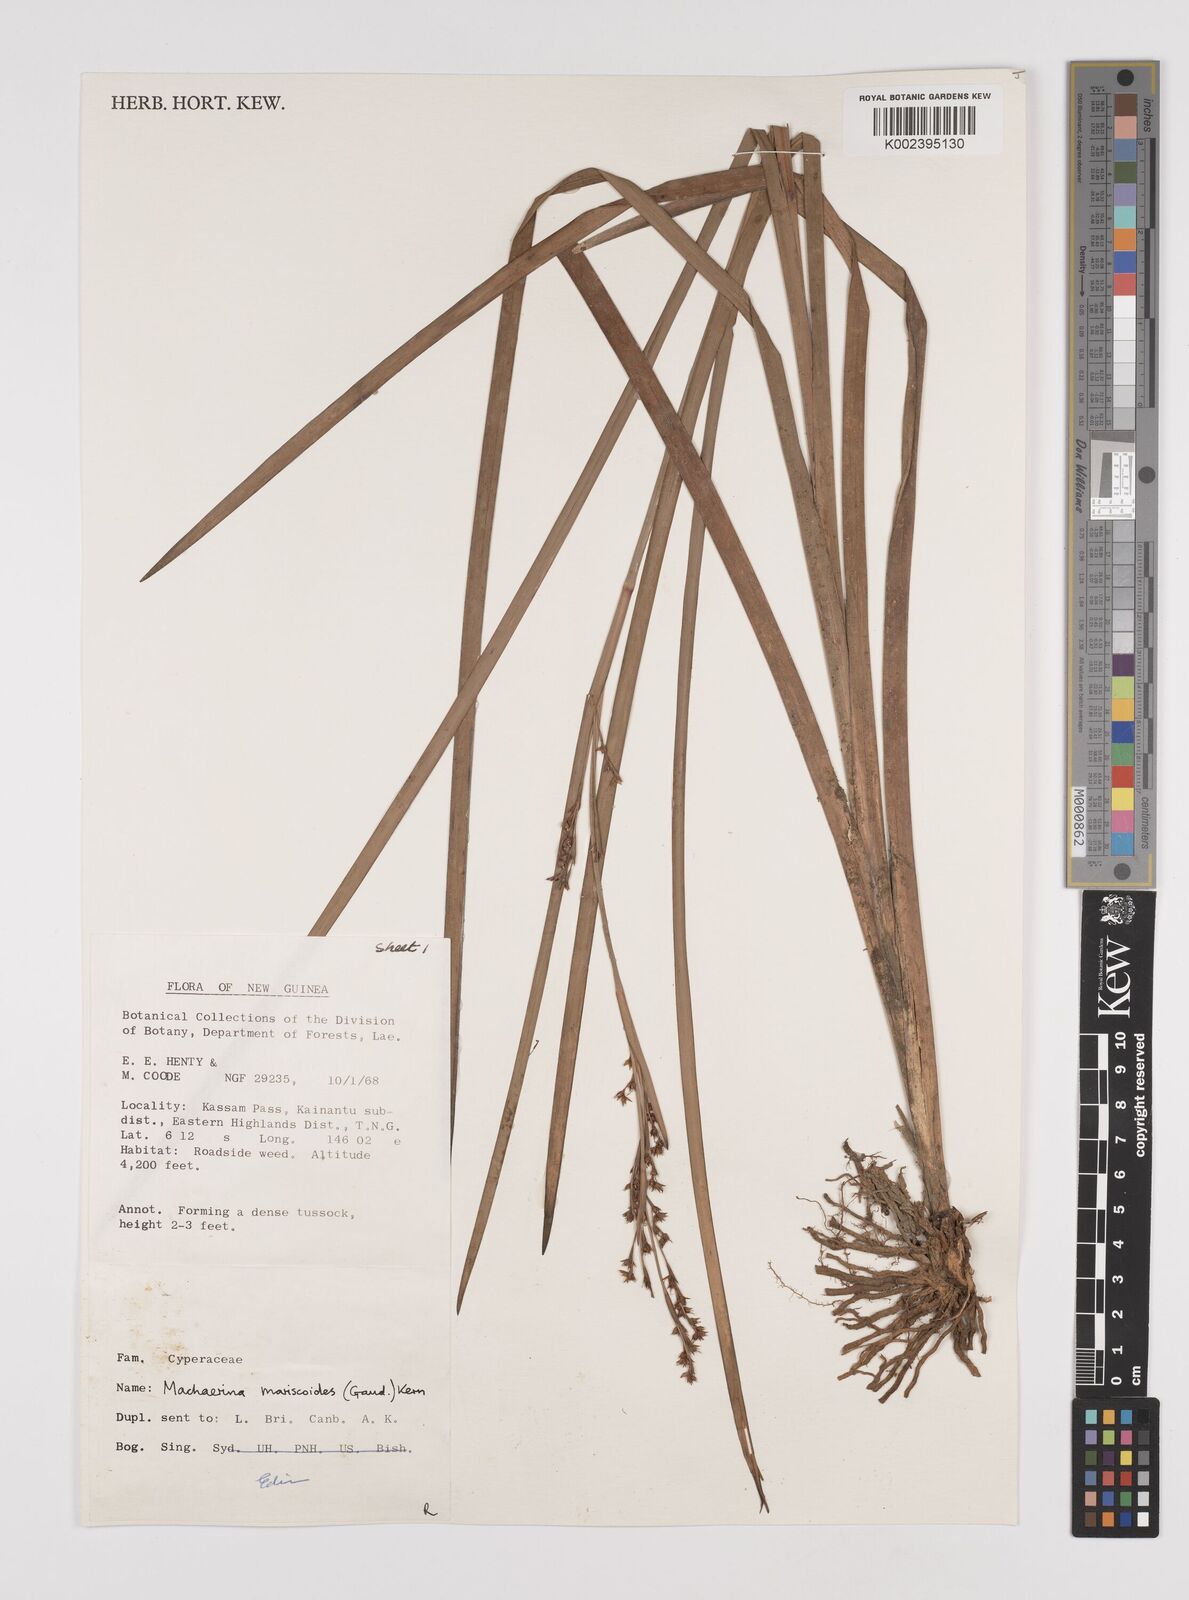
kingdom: Plantae
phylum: Tracheophyta
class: Liliopsida
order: Poales
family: Cyperaceae
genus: Machaerina
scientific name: Machaerina mariscoides
